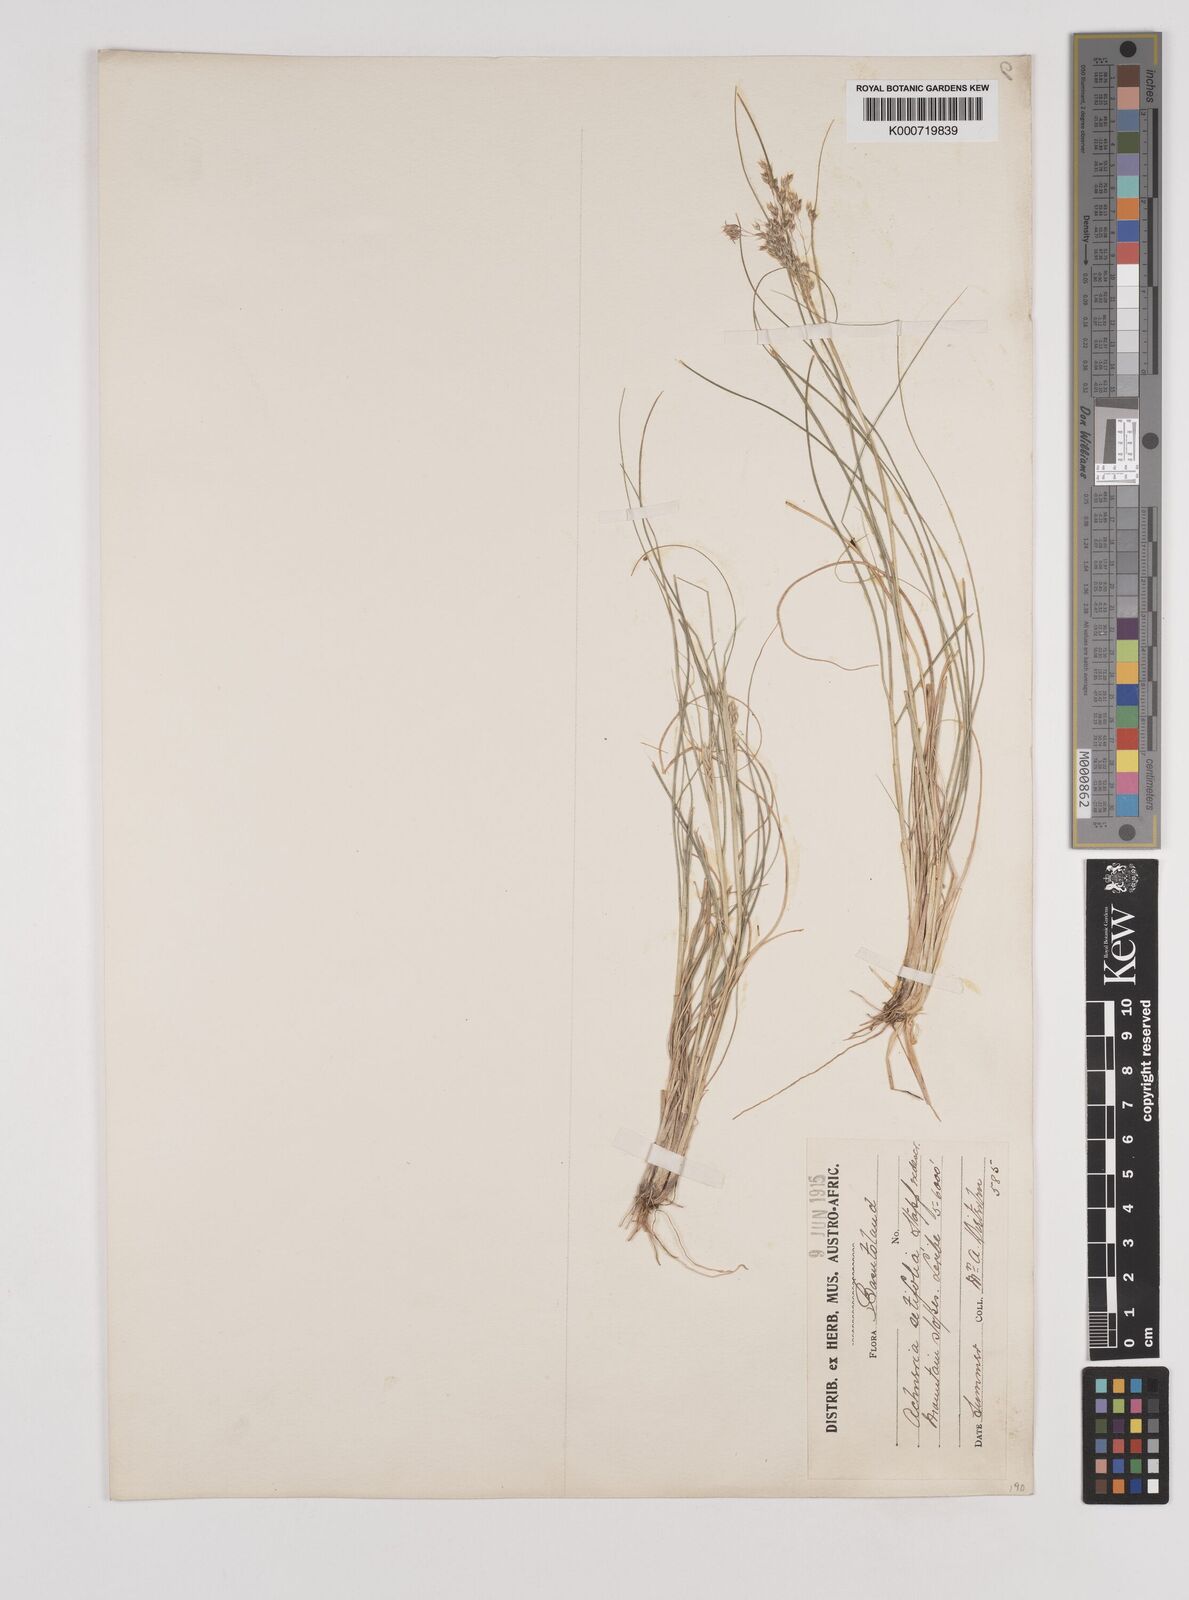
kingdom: Plantae
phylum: Tracheophyta
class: Liliopsida
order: Poales
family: Poaceae
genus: Pentaschistis
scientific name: Pentaschistis
